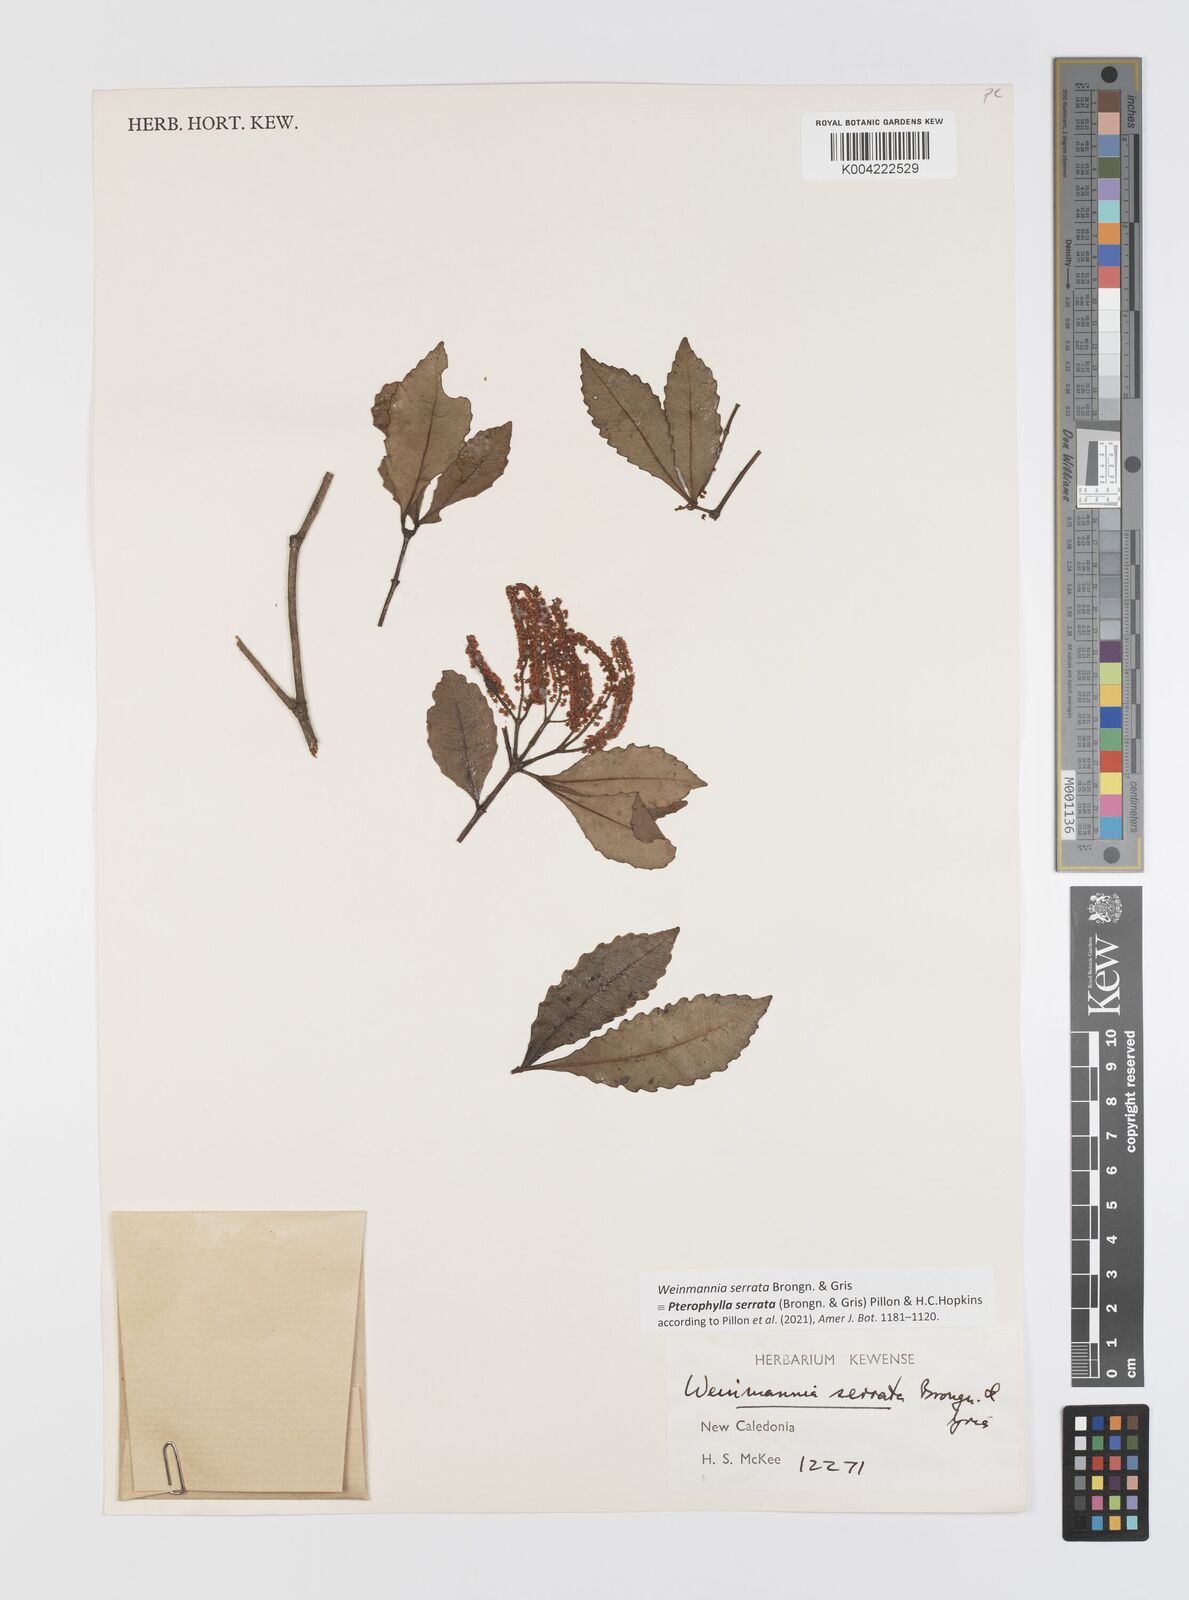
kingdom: Plantae
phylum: Tracheophyta
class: Magnoliopsida
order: Oxalidales
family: Cunoniaceae
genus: Pterophylla
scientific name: Pterophylla serrata
